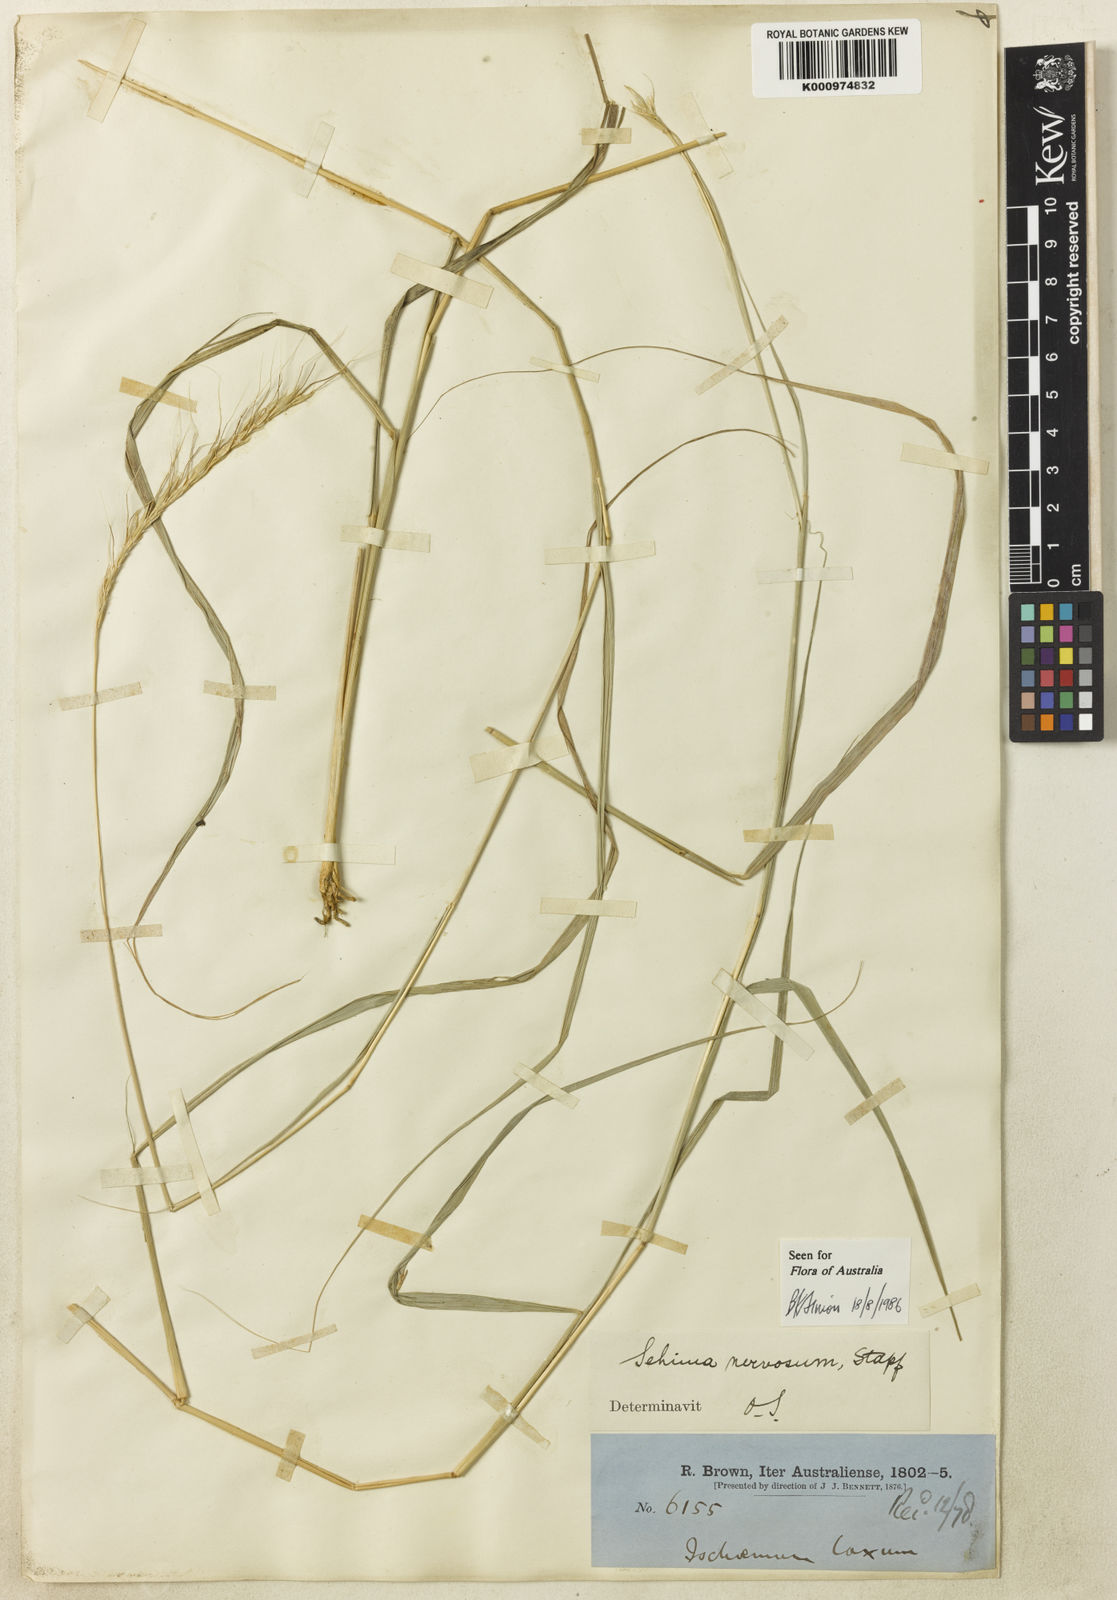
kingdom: Plantae
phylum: Tracheophyta
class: Liliopsida
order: Poales
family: Poaceae
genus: Sehima
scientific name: Sehima nervosa
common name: Rat-tail grass
